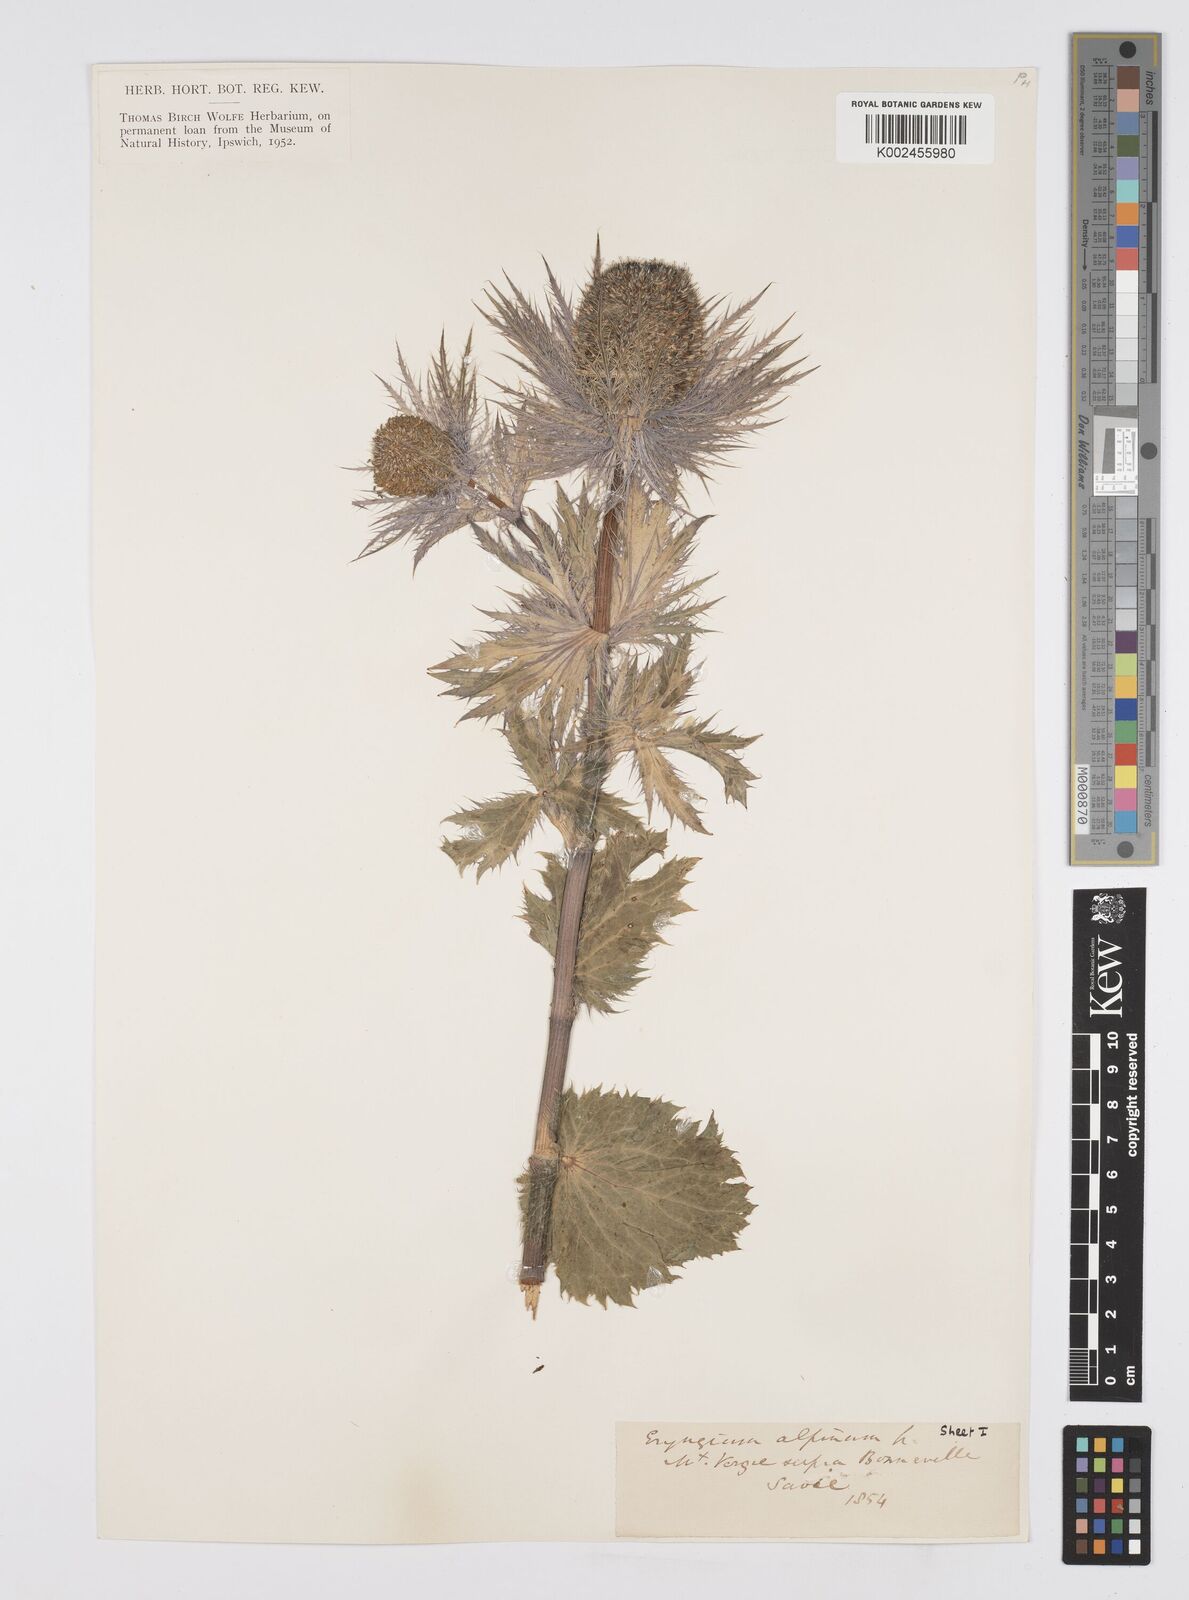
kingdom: Plantae
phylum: Tracheophyta
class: Magnoliopsida
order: Apiales
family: Apiaceae
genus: Eryngium
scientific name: Eryngium alpinum
